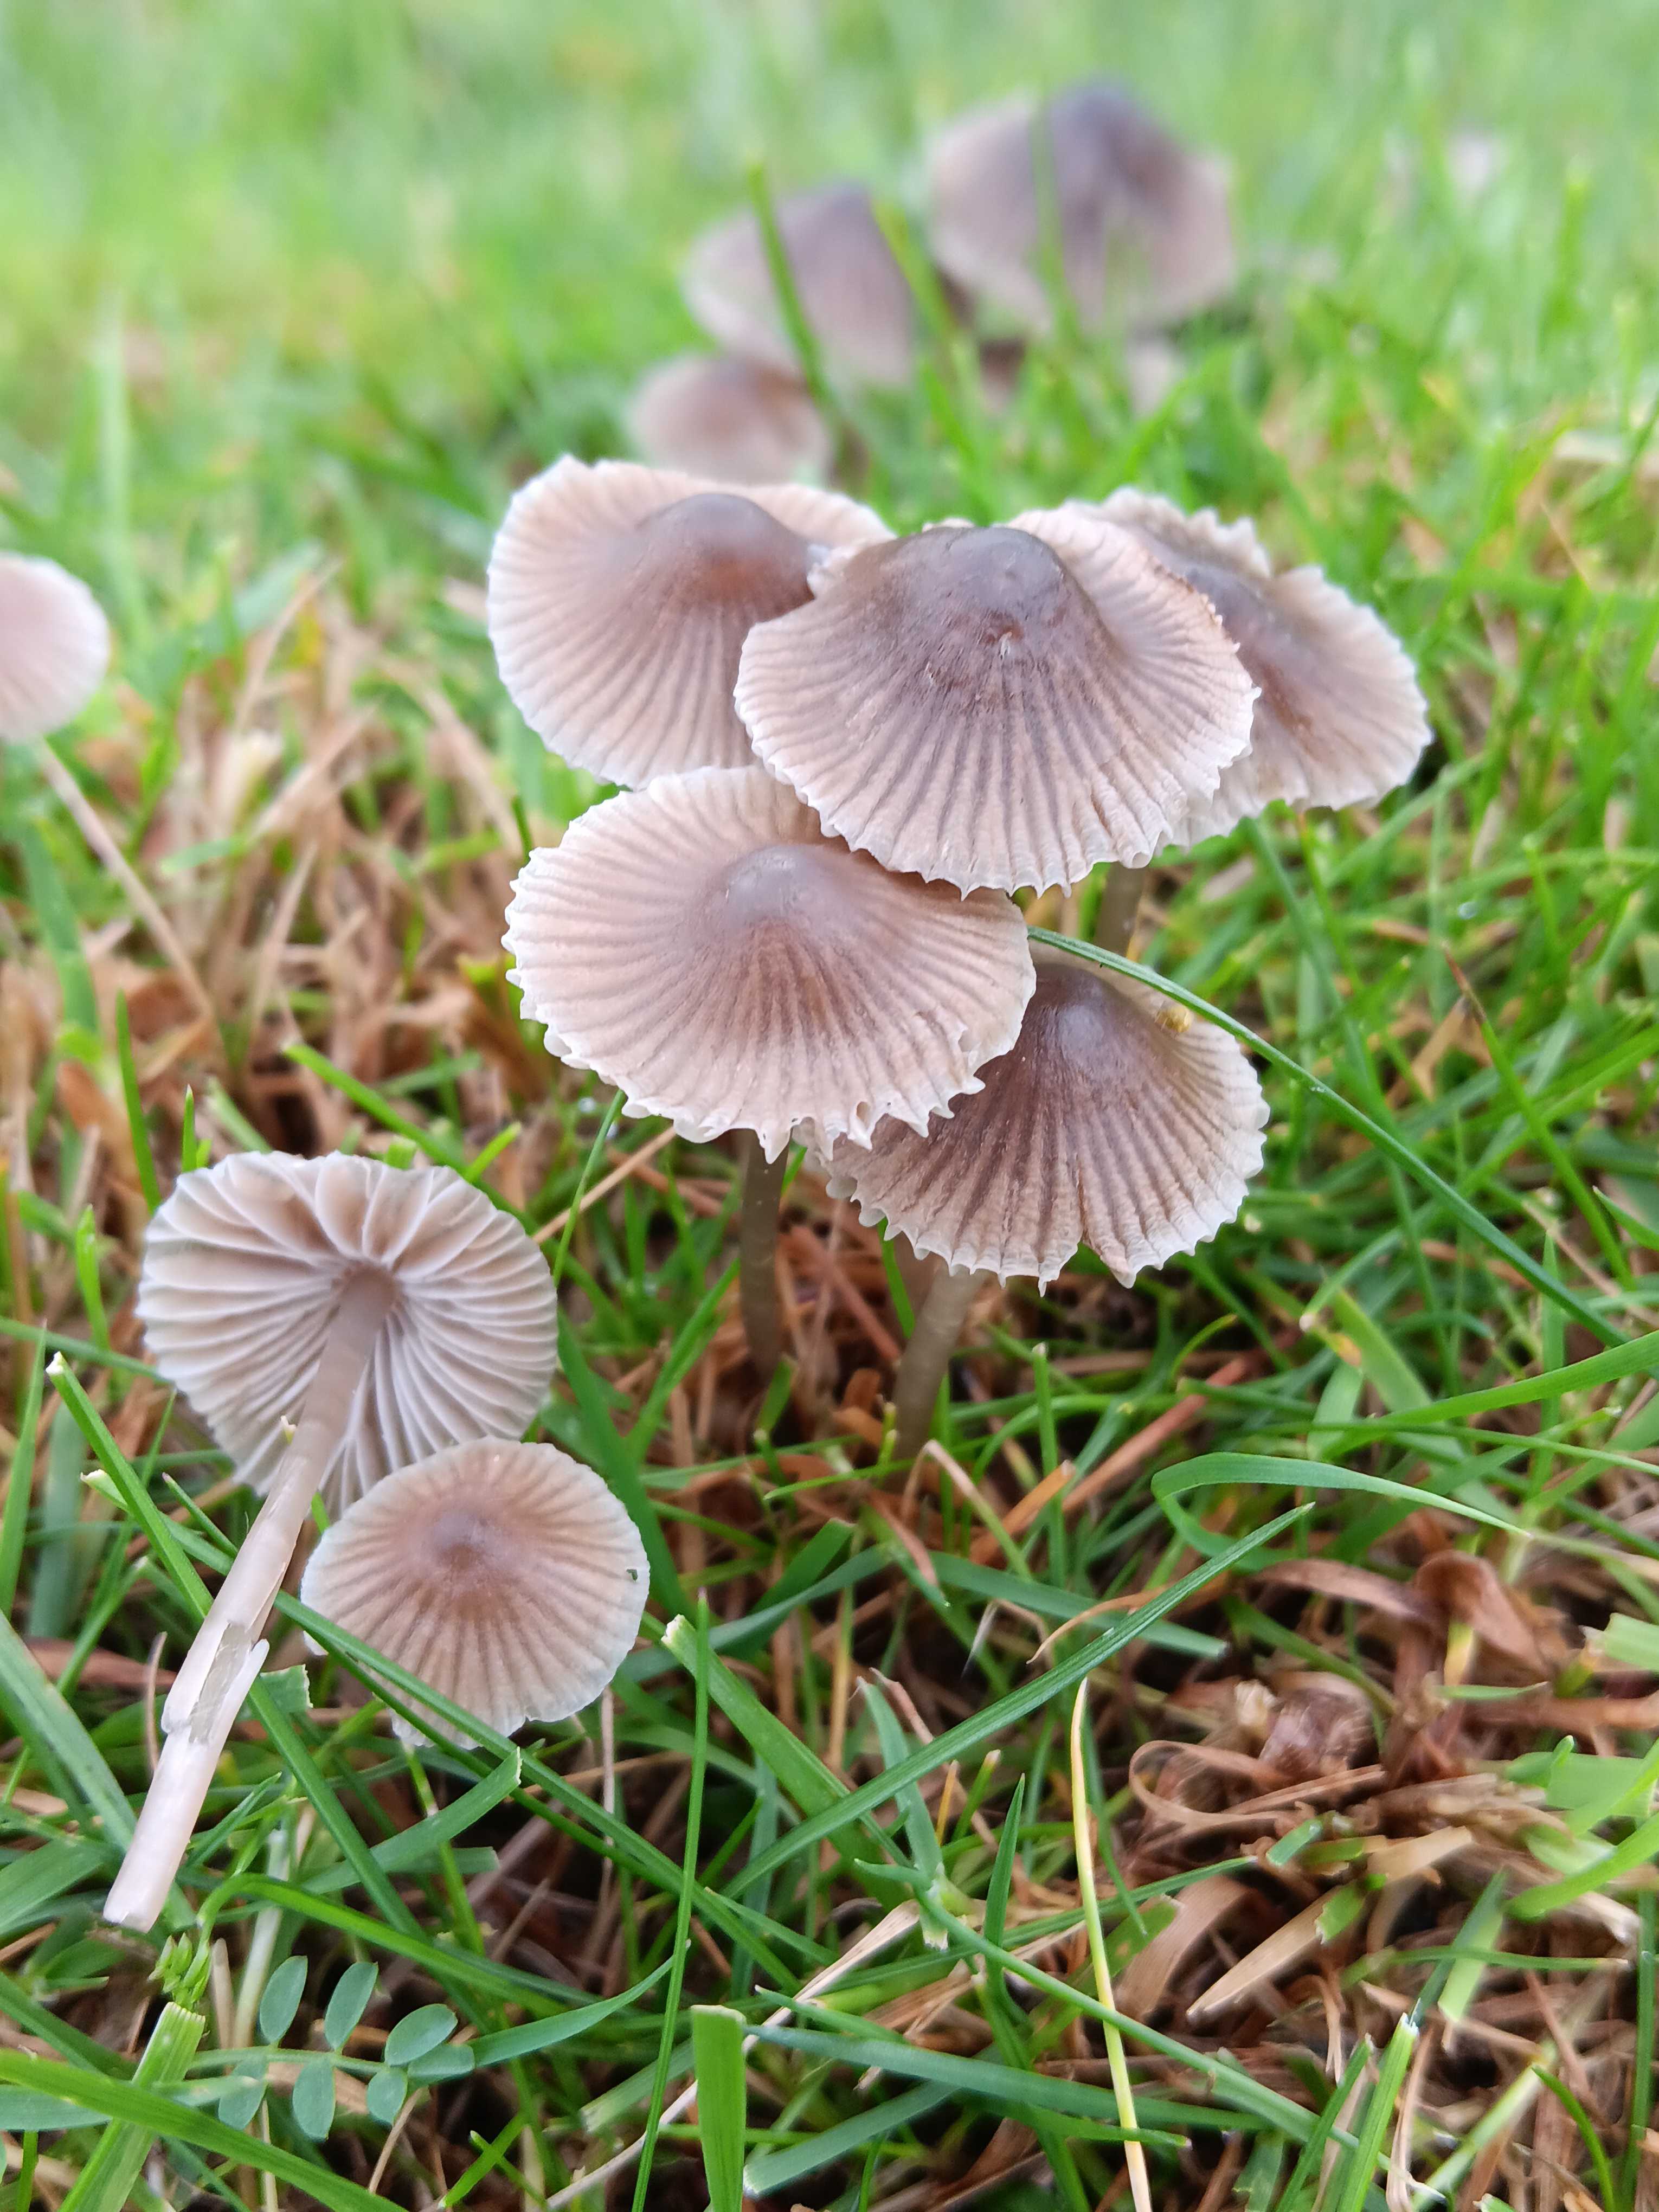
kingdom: Fungi
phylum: Basidiomycota
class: Agaricomycetes
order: Agaricales
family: Mycenaceae
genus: Mycena
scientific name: Mycena aetites
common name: plæne-huesvamp
